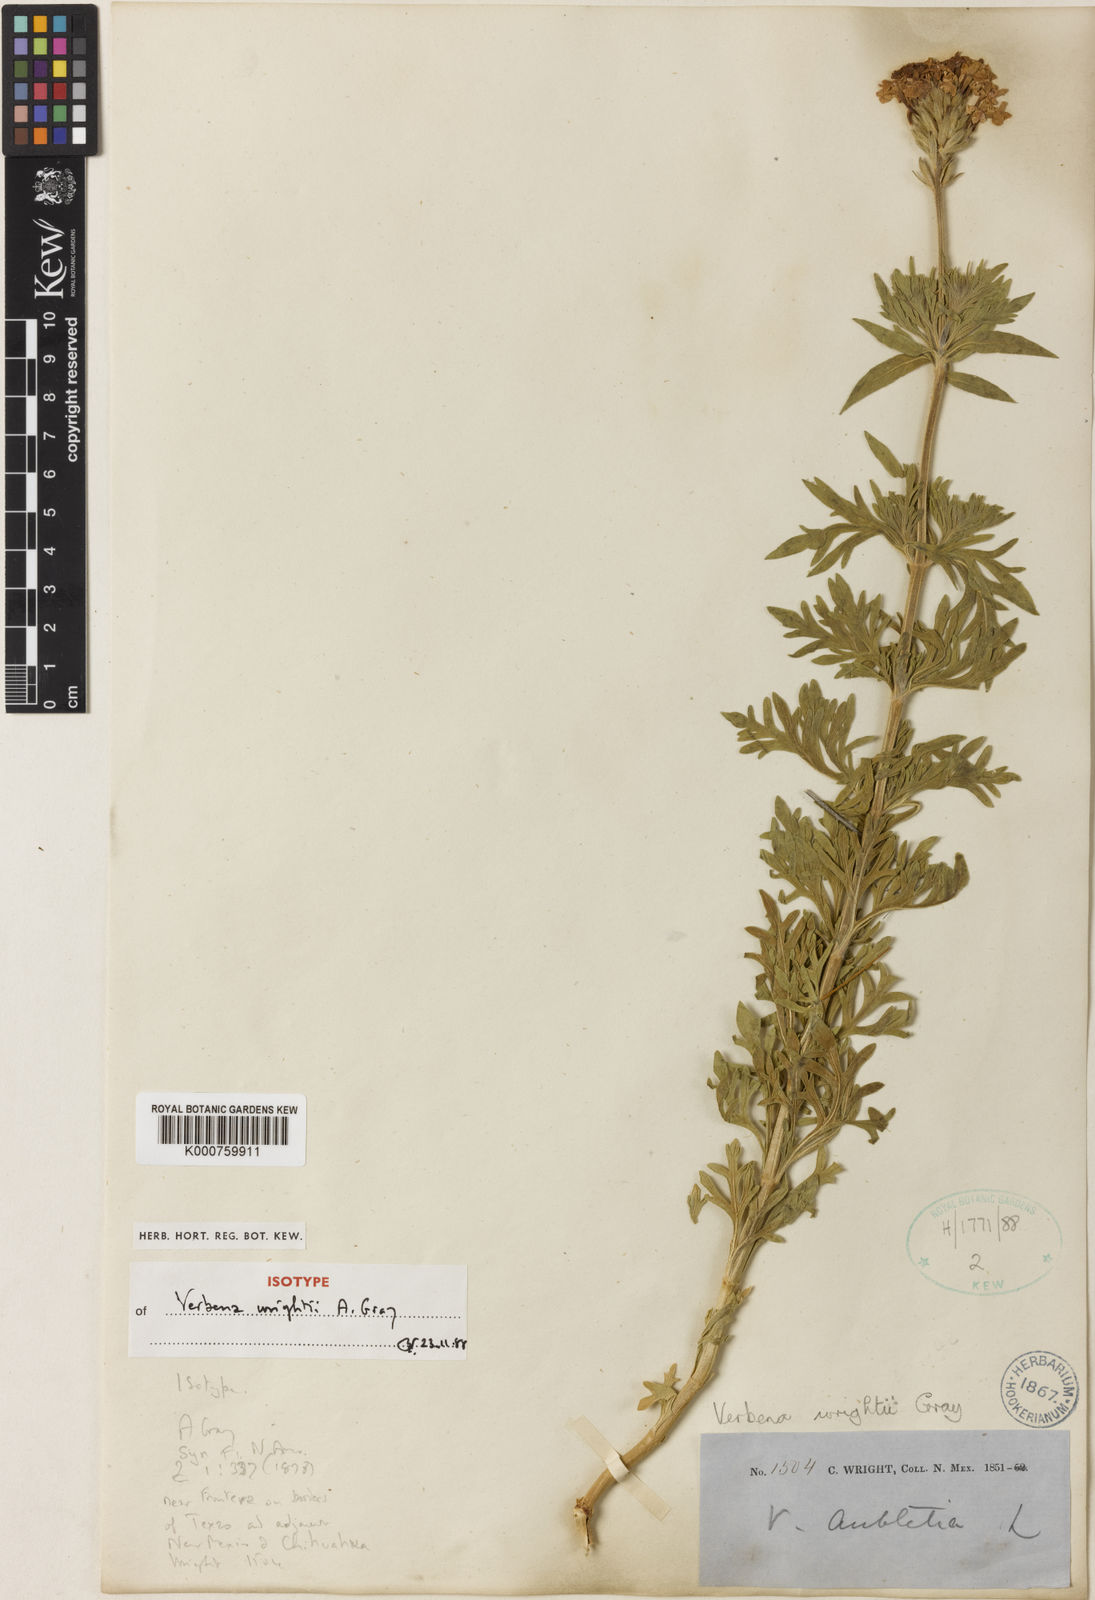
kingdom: Plantae
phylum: Tracheophyta
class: Magnoliopsida
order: Lamiales
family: Verbenaceae
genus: Verbena
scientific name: Verbena bipinnatifida
